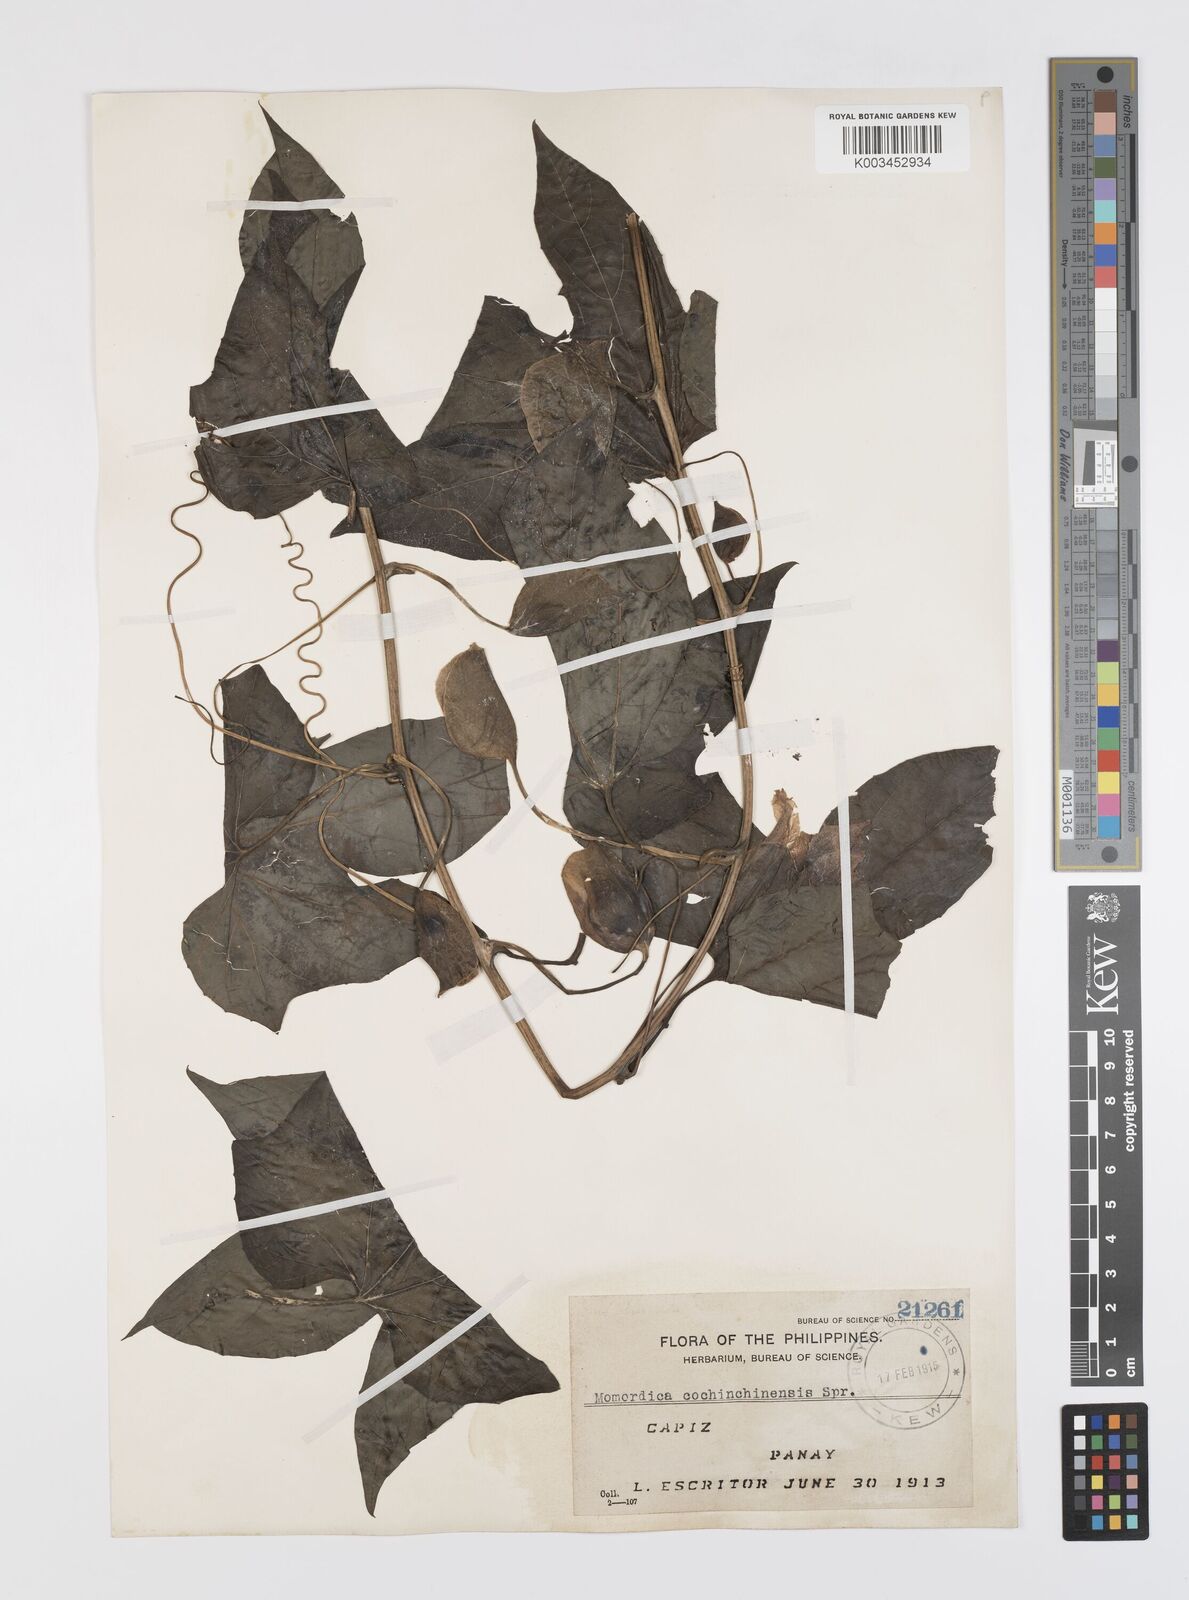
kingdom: Plantae
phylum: Tracheophyta
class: Magnoliopsida
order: Cucurbitales
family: Cucurbitaceae
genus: Momordica
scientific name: Momordica cochinchinensis
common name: Chinese bitter-cucumber
